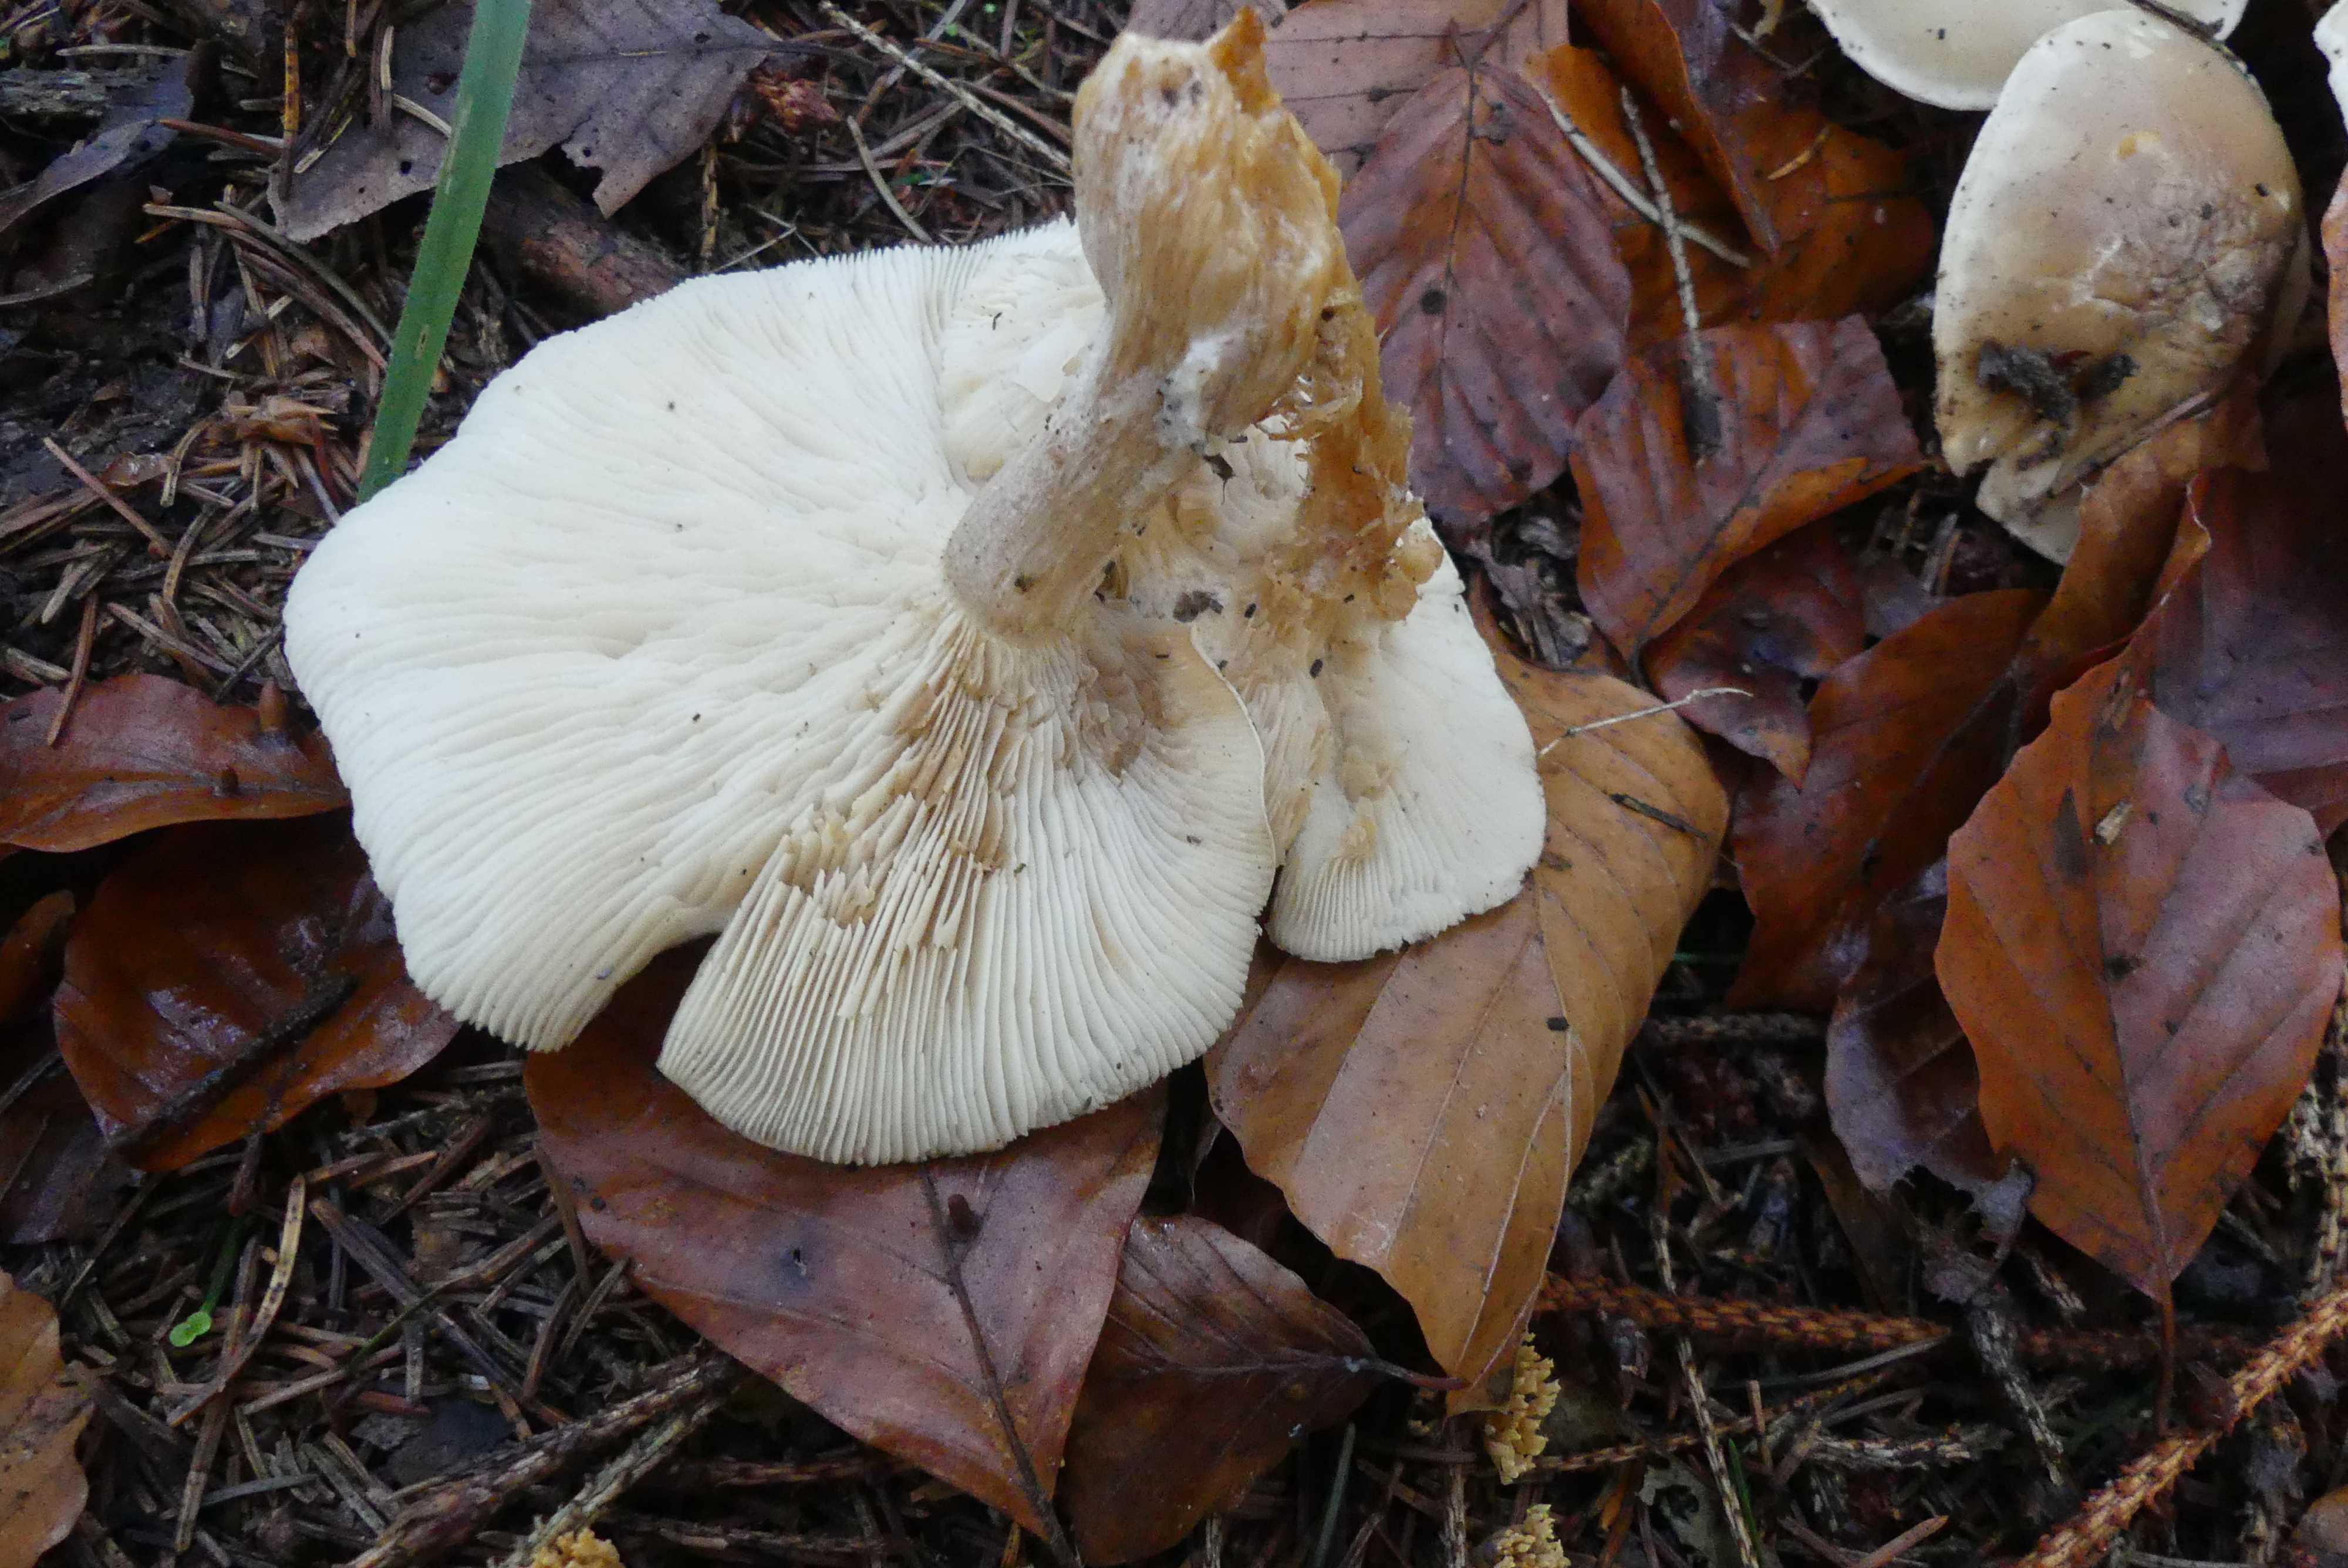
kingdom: Fungi
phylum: Basidiomycota
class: Agaricomycetes
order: Agaricales
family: Tricholomataceae
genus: Clitocybe
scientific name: Clitocybe nebularis
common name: tåge-tragthat
